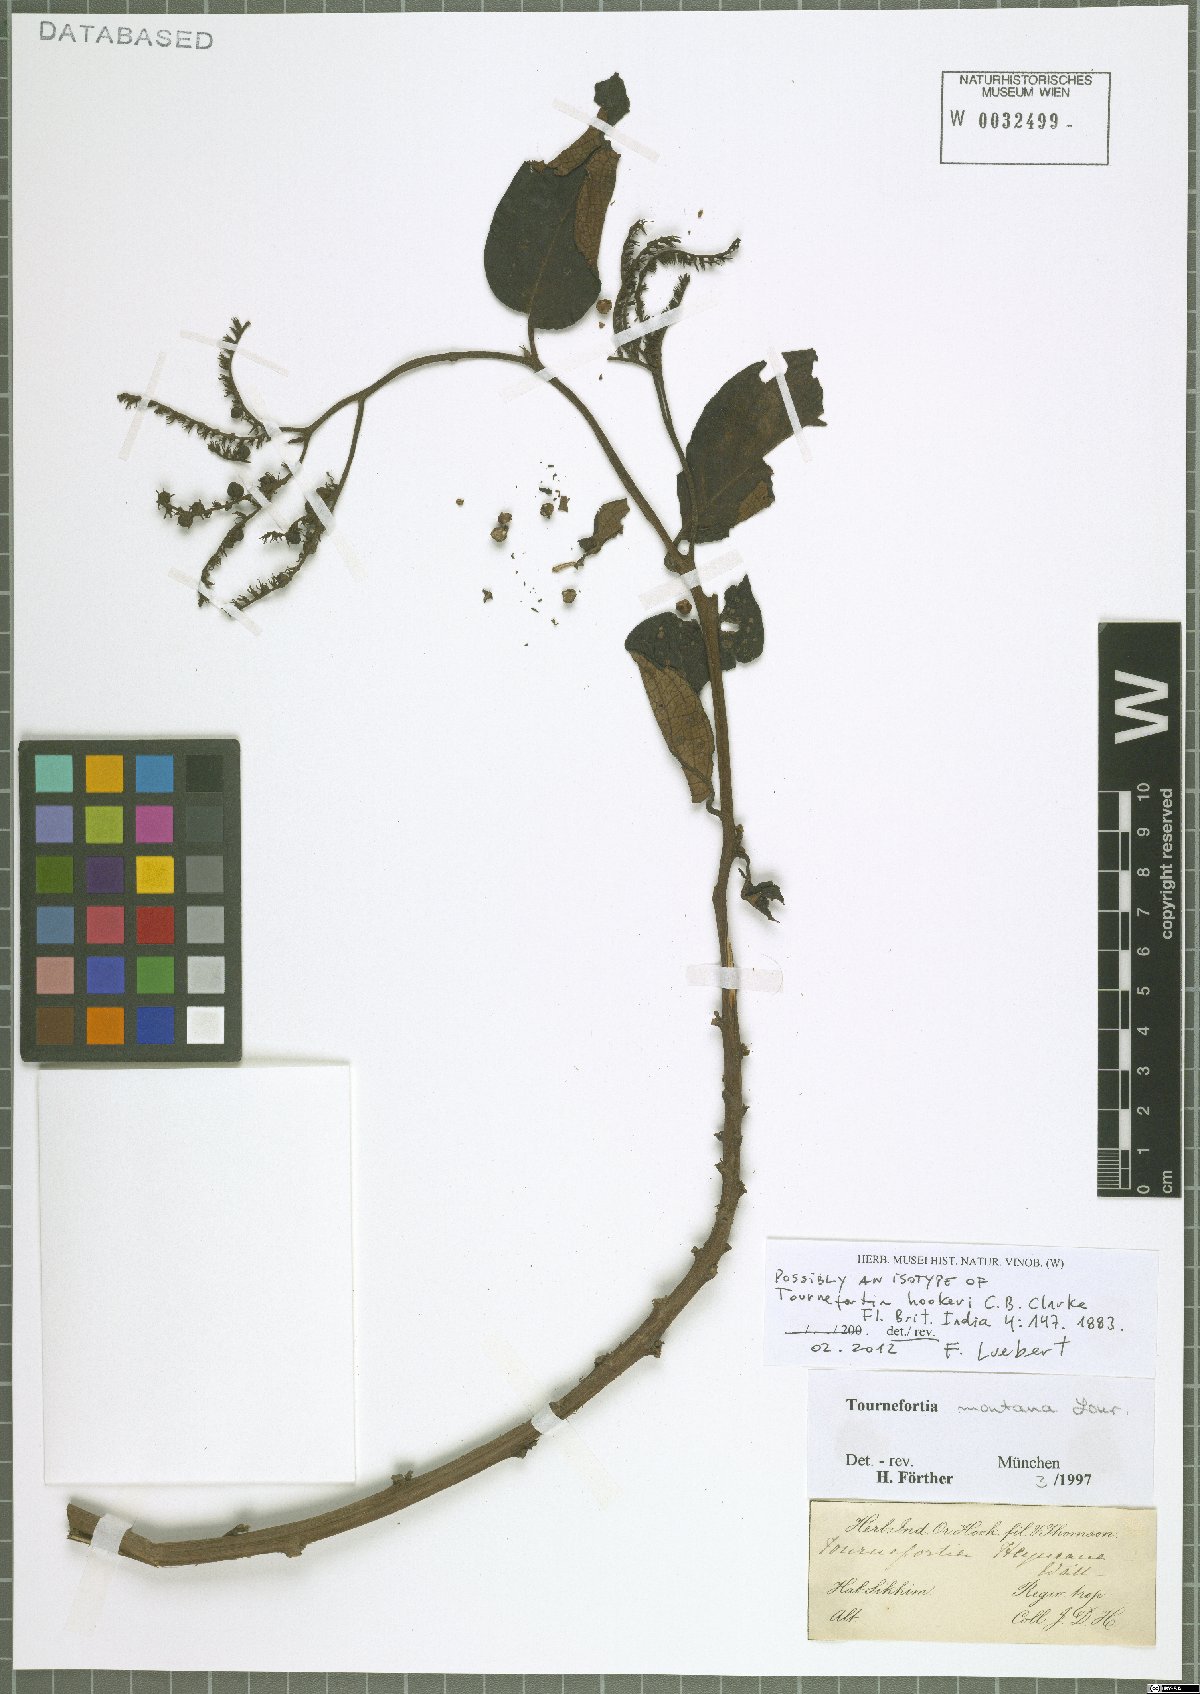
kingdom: Plantae
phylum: Tracheophyta
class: Magnoliopsida
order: Boraginales
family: Heliotropiaceae
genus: Tournefortia
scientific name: Tournefortia montana
